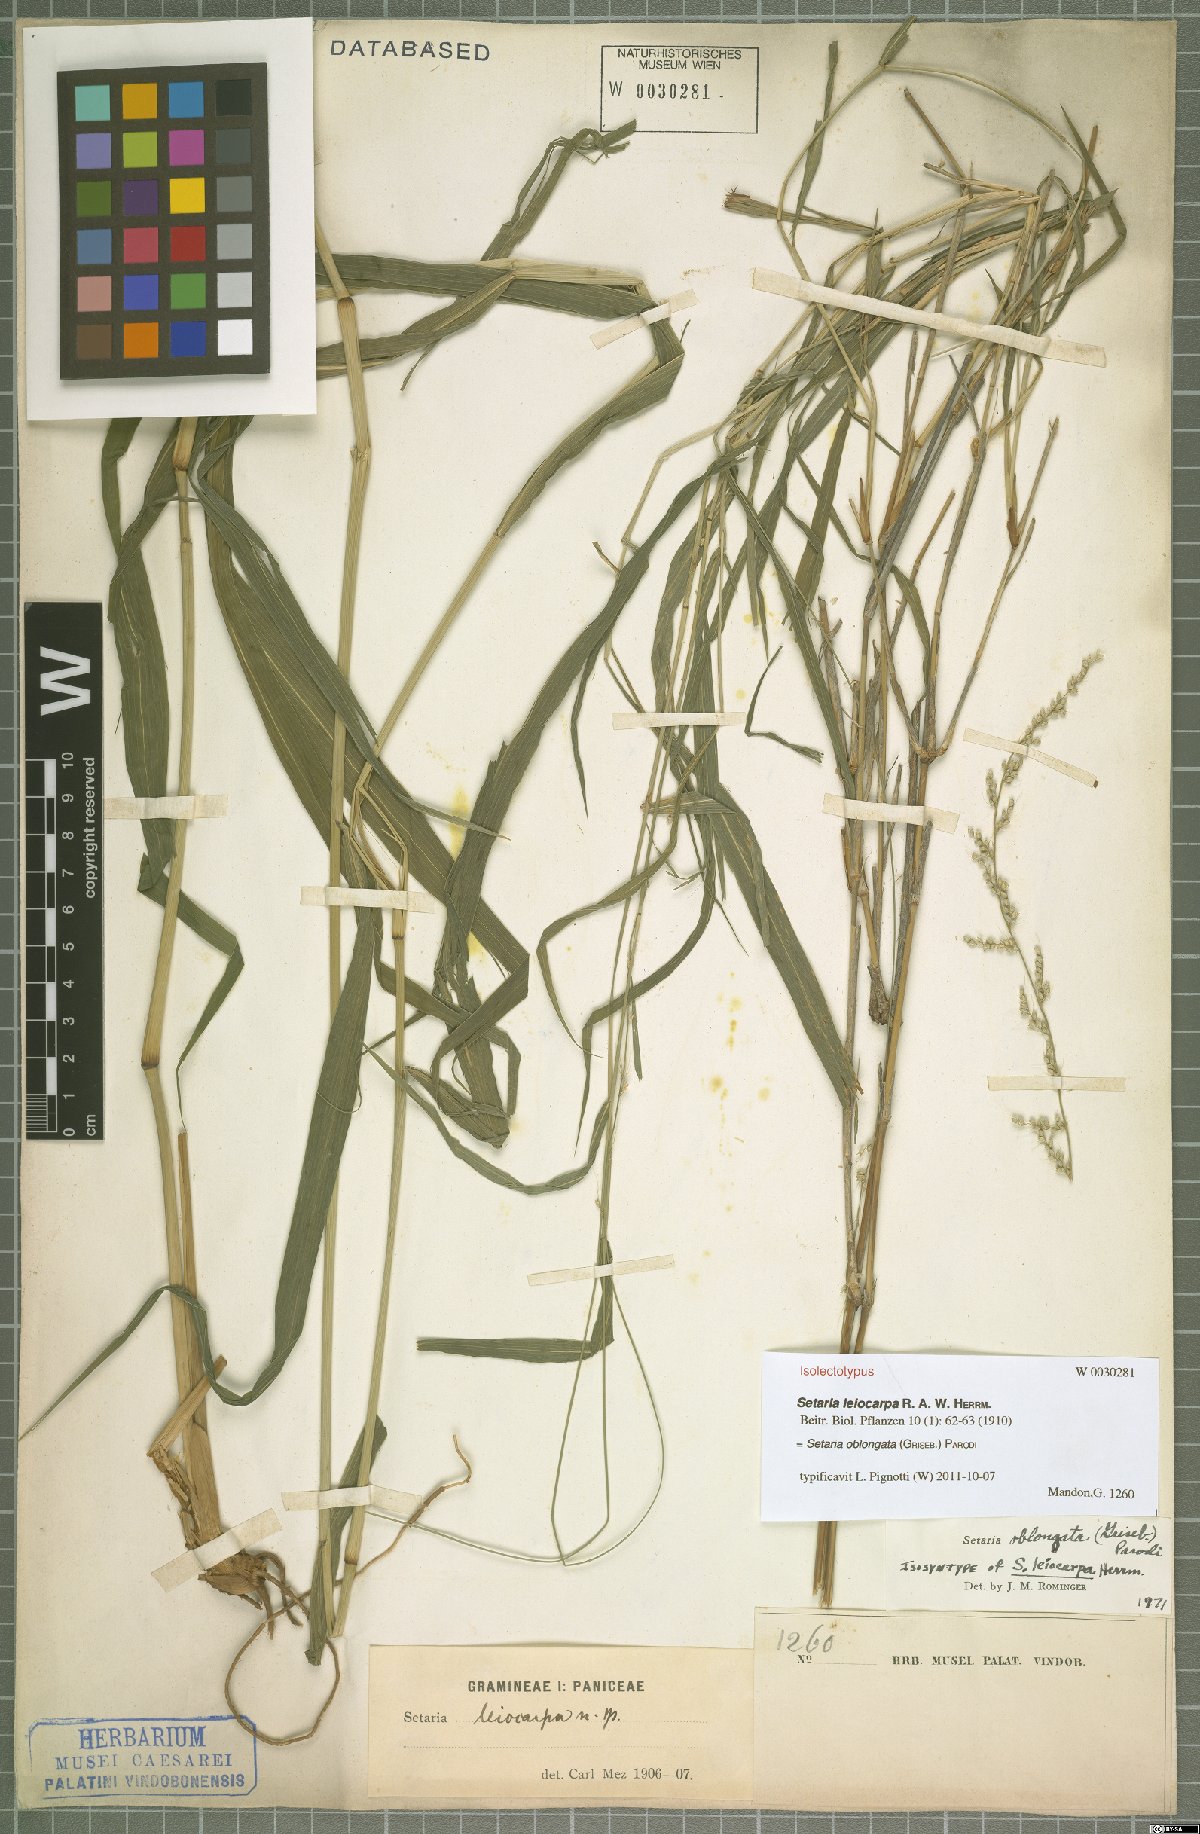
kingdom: Plantae
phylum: Tracheophyta
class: Liliopsida
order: Poales
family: Poaceae
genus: Setaria
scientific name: Setaria oblongata
